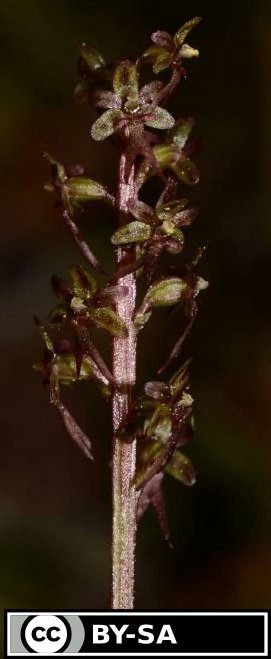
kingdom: Plantae
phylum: Tracheophyta
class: Liliopsida
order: Asparagales
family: Orchidaceae
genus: Neottia
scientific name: Neottia cordata
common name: Lesser twayblade
